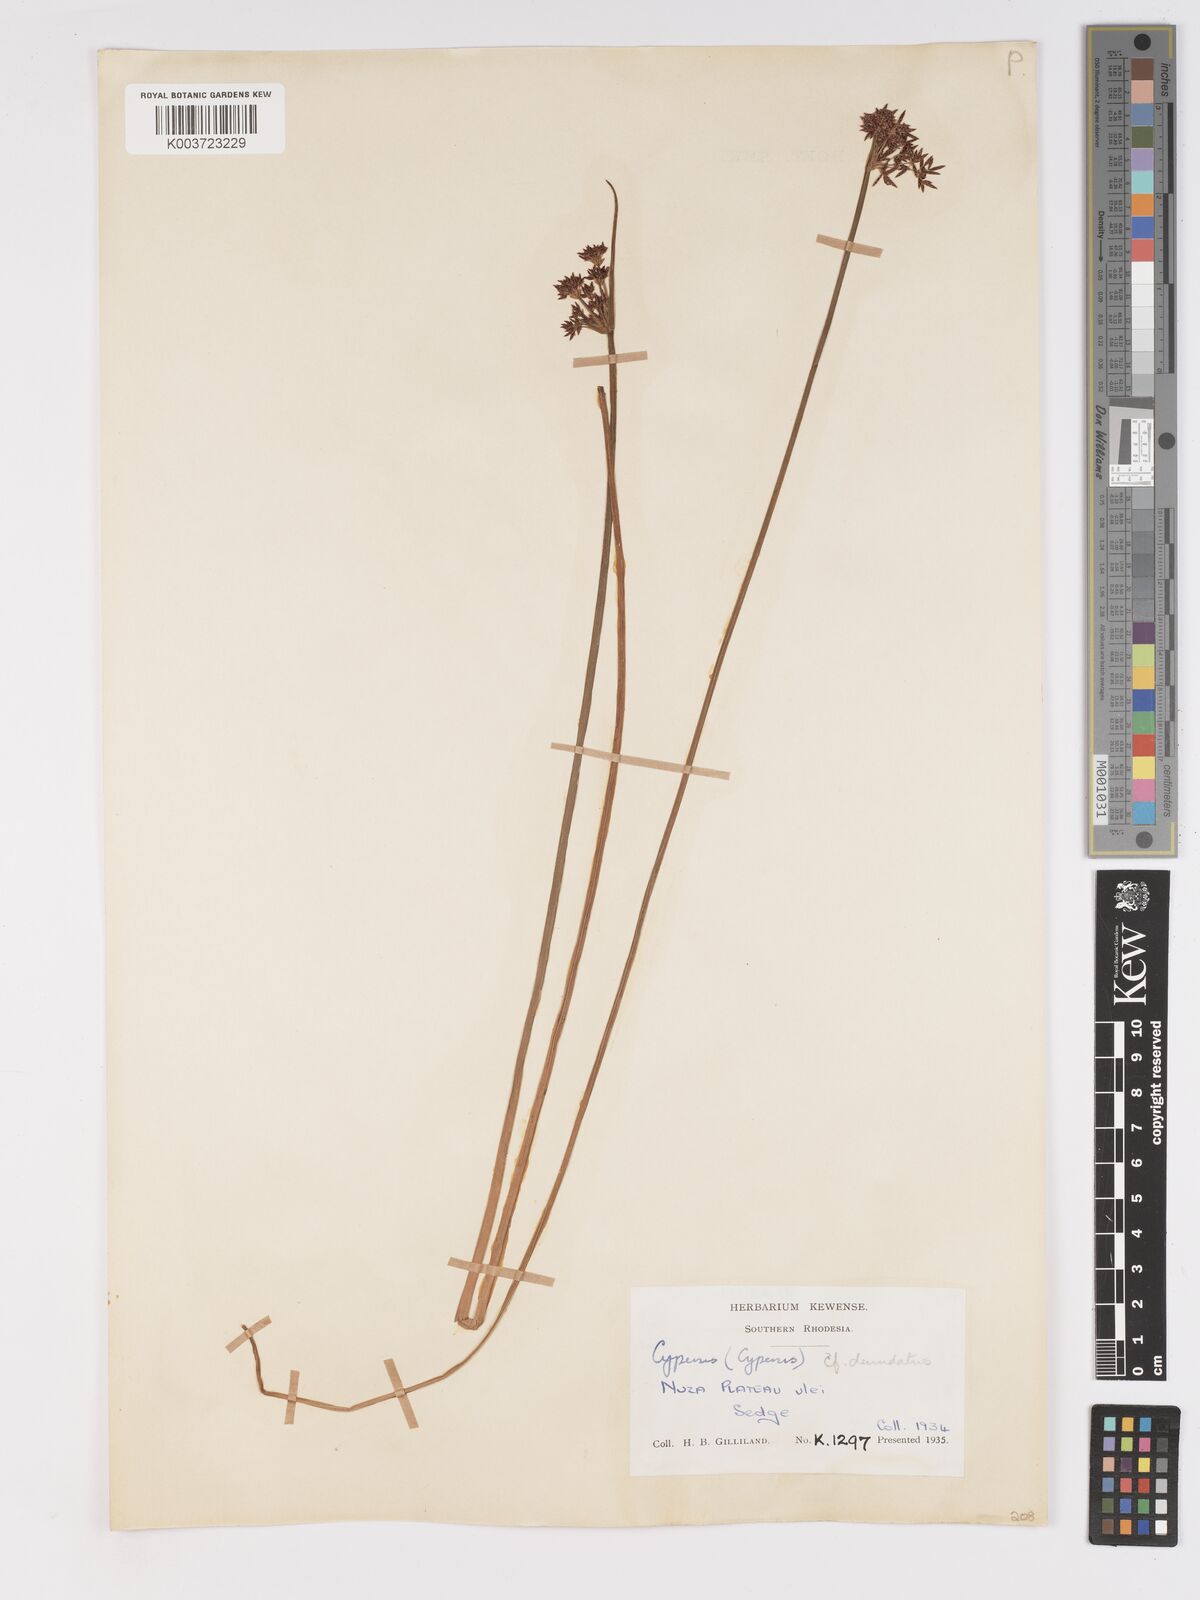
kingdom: Plantae
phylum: Tracheophyta
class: Liliopsida
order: Poales
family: Cyperaceae
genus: Cyperus
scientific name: Cyperus haspan
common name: Haspan flatsedge
